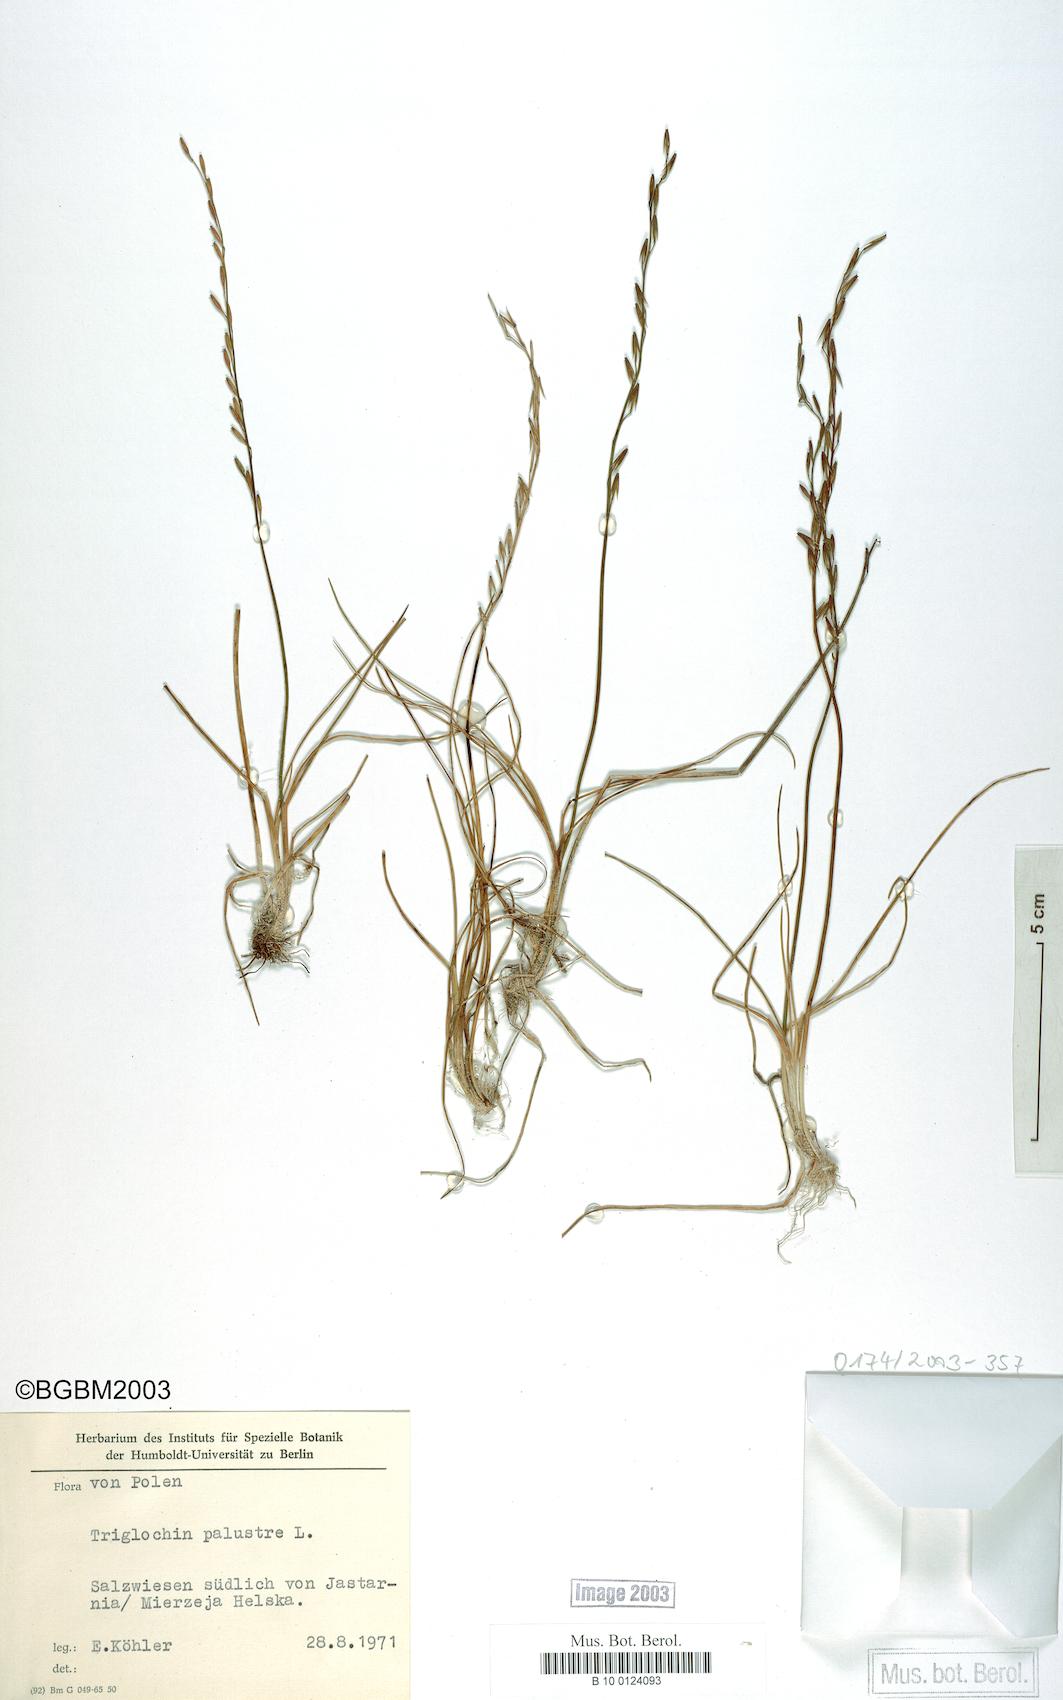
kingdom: Plantae
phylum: Tracheophyta
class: Liliopsida
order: Alismatales
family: Juncaginaceae
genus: Triglochin
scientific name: Triglochin palustris
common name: Marsh arrowgrass
